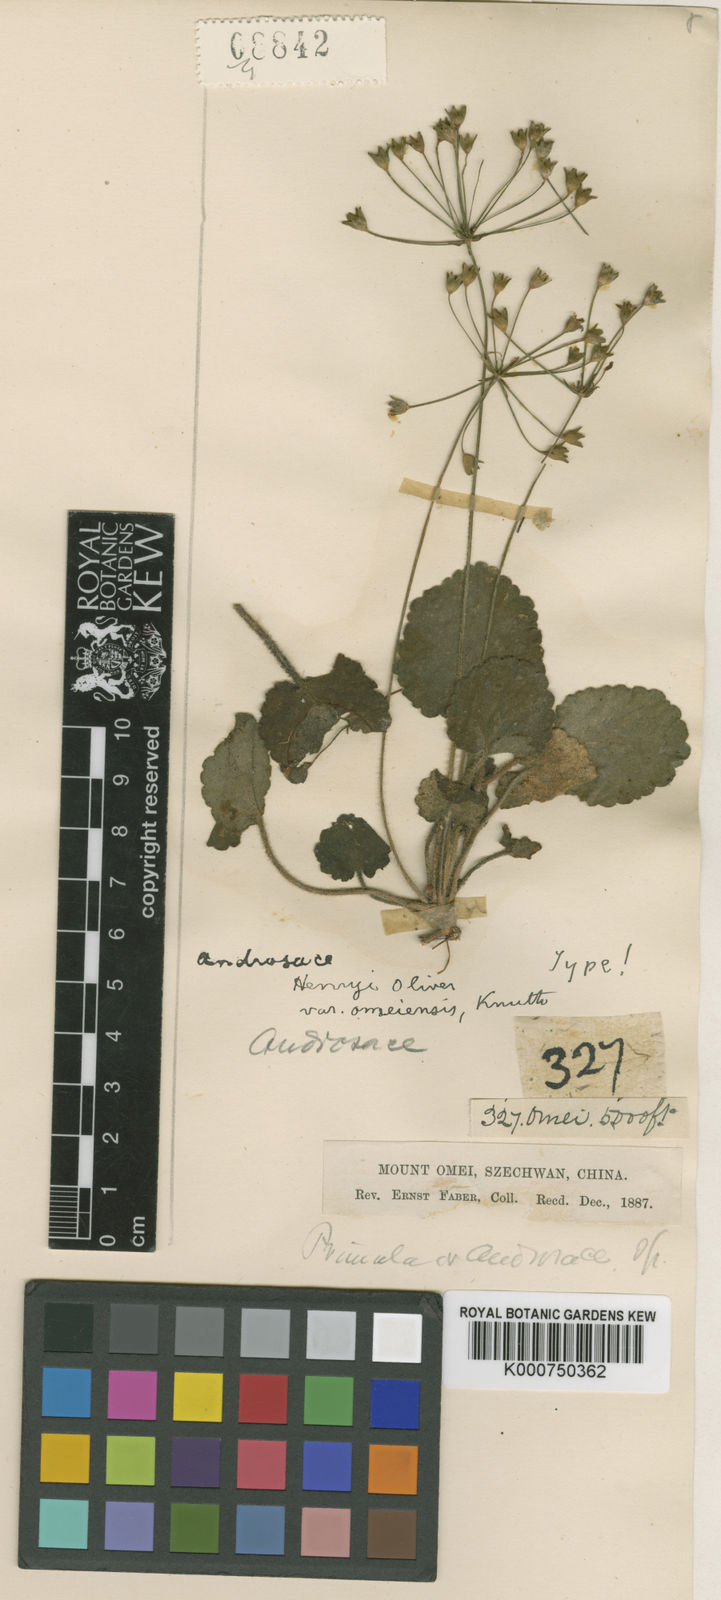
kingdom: Plantae
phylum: Tracheophyta
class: Magnoliopsida
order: Ericales
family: Primulaceae
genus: Androsace
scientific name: Androsace paxiana
